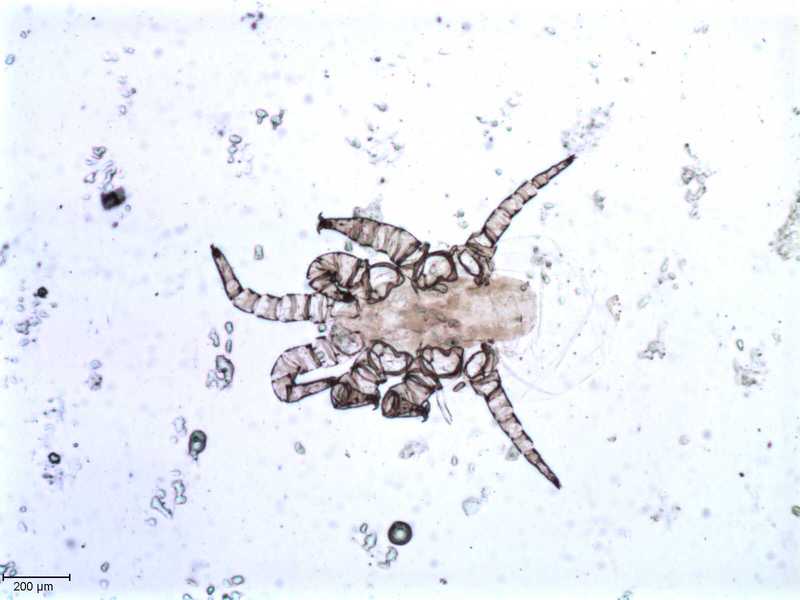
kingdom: Animalia
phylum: Arthropoda
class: Arachnida
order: Mesostigmata
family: Halarachnidae
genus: Orthohalarachne
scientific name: Orthohalarachne letalis
